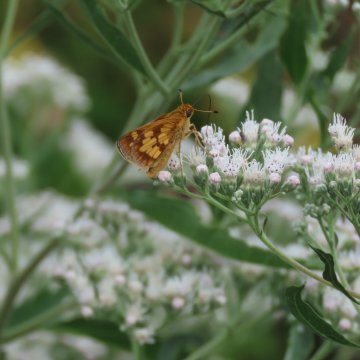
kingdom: Animalia
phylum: Arthropoda
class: Insecta
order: Lepidoptera
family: Hesperiidae
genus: Polites
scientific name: Polites coras
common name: Peck's Skipper
